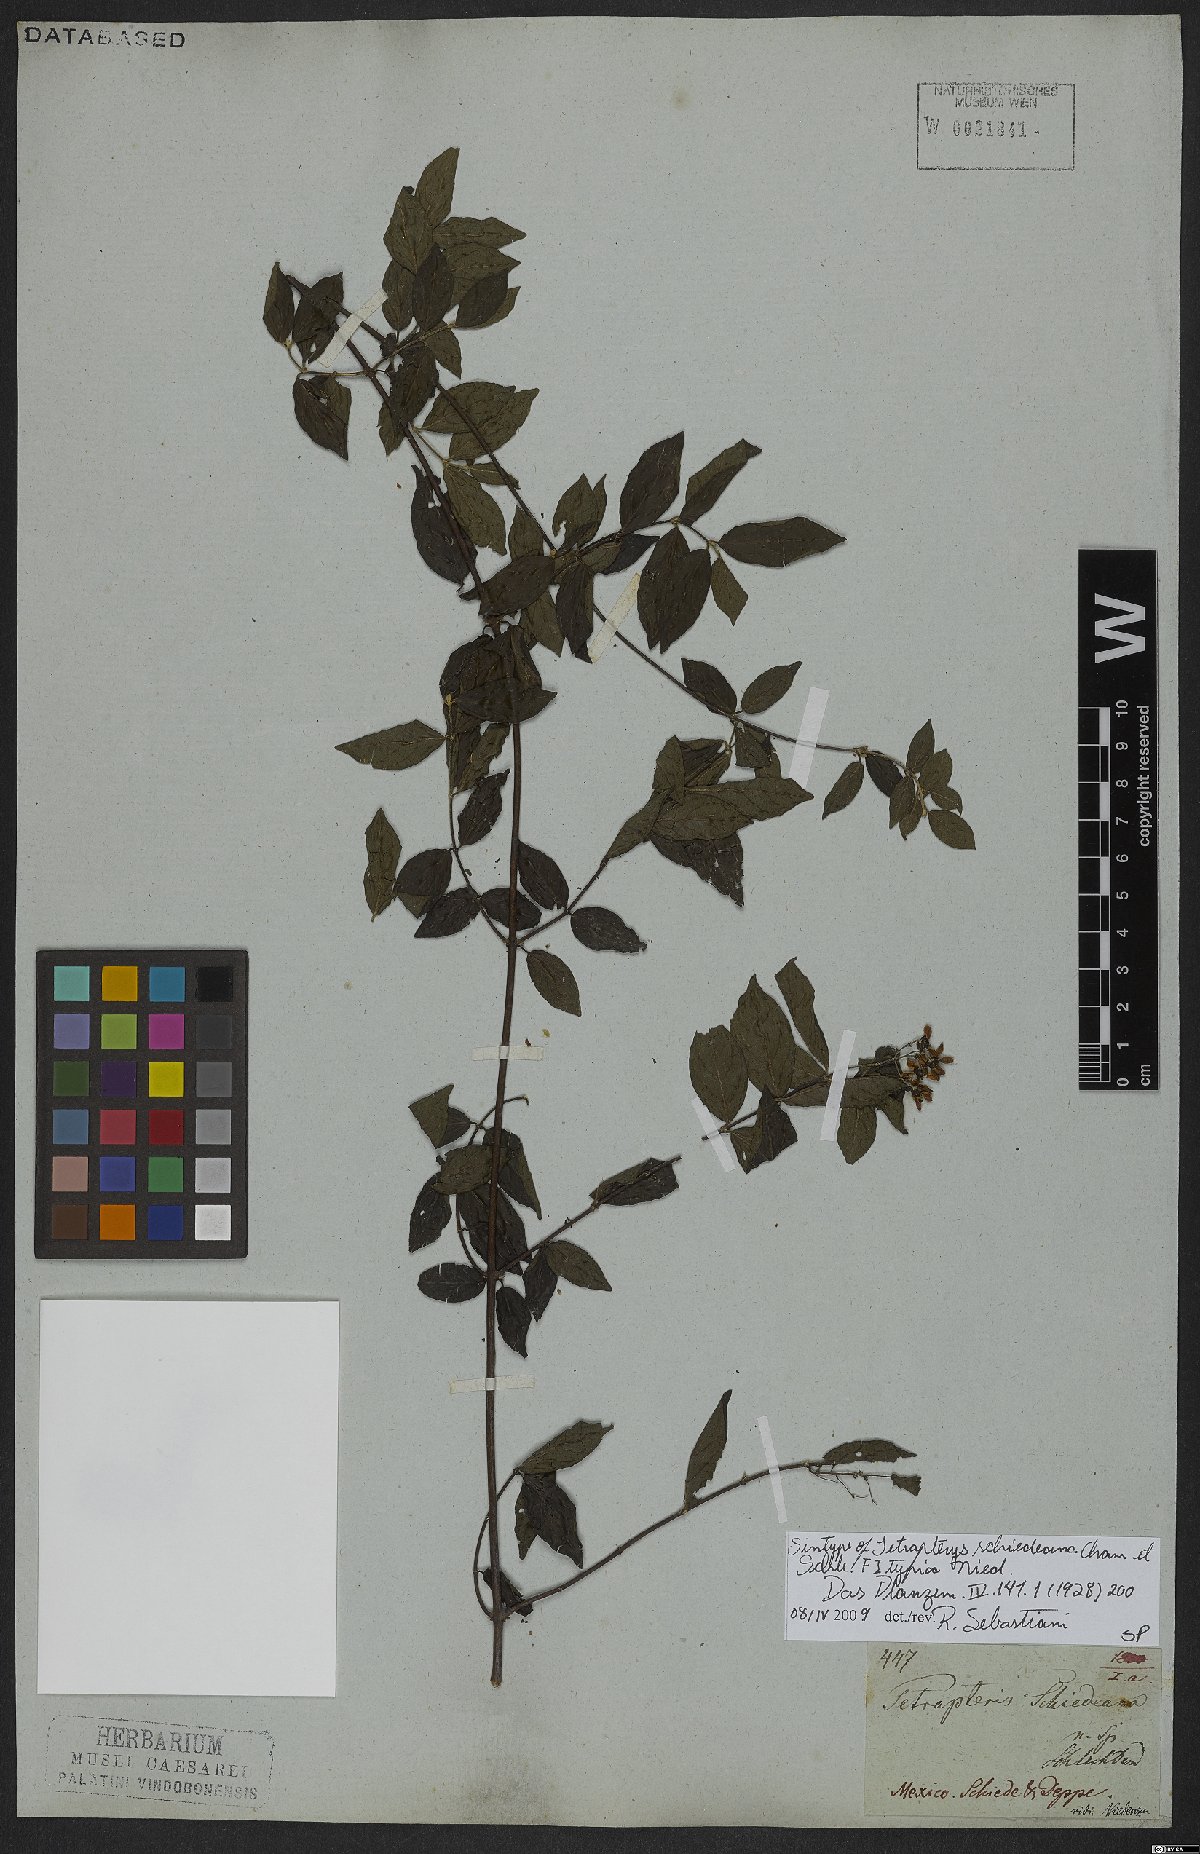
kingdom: Plantae
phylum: Tracheophyta
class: Magnoliopsida
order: Malpighiales
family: Malpighiaceae
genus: Tetrapterys
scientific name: Tetrapterys schiedeana
